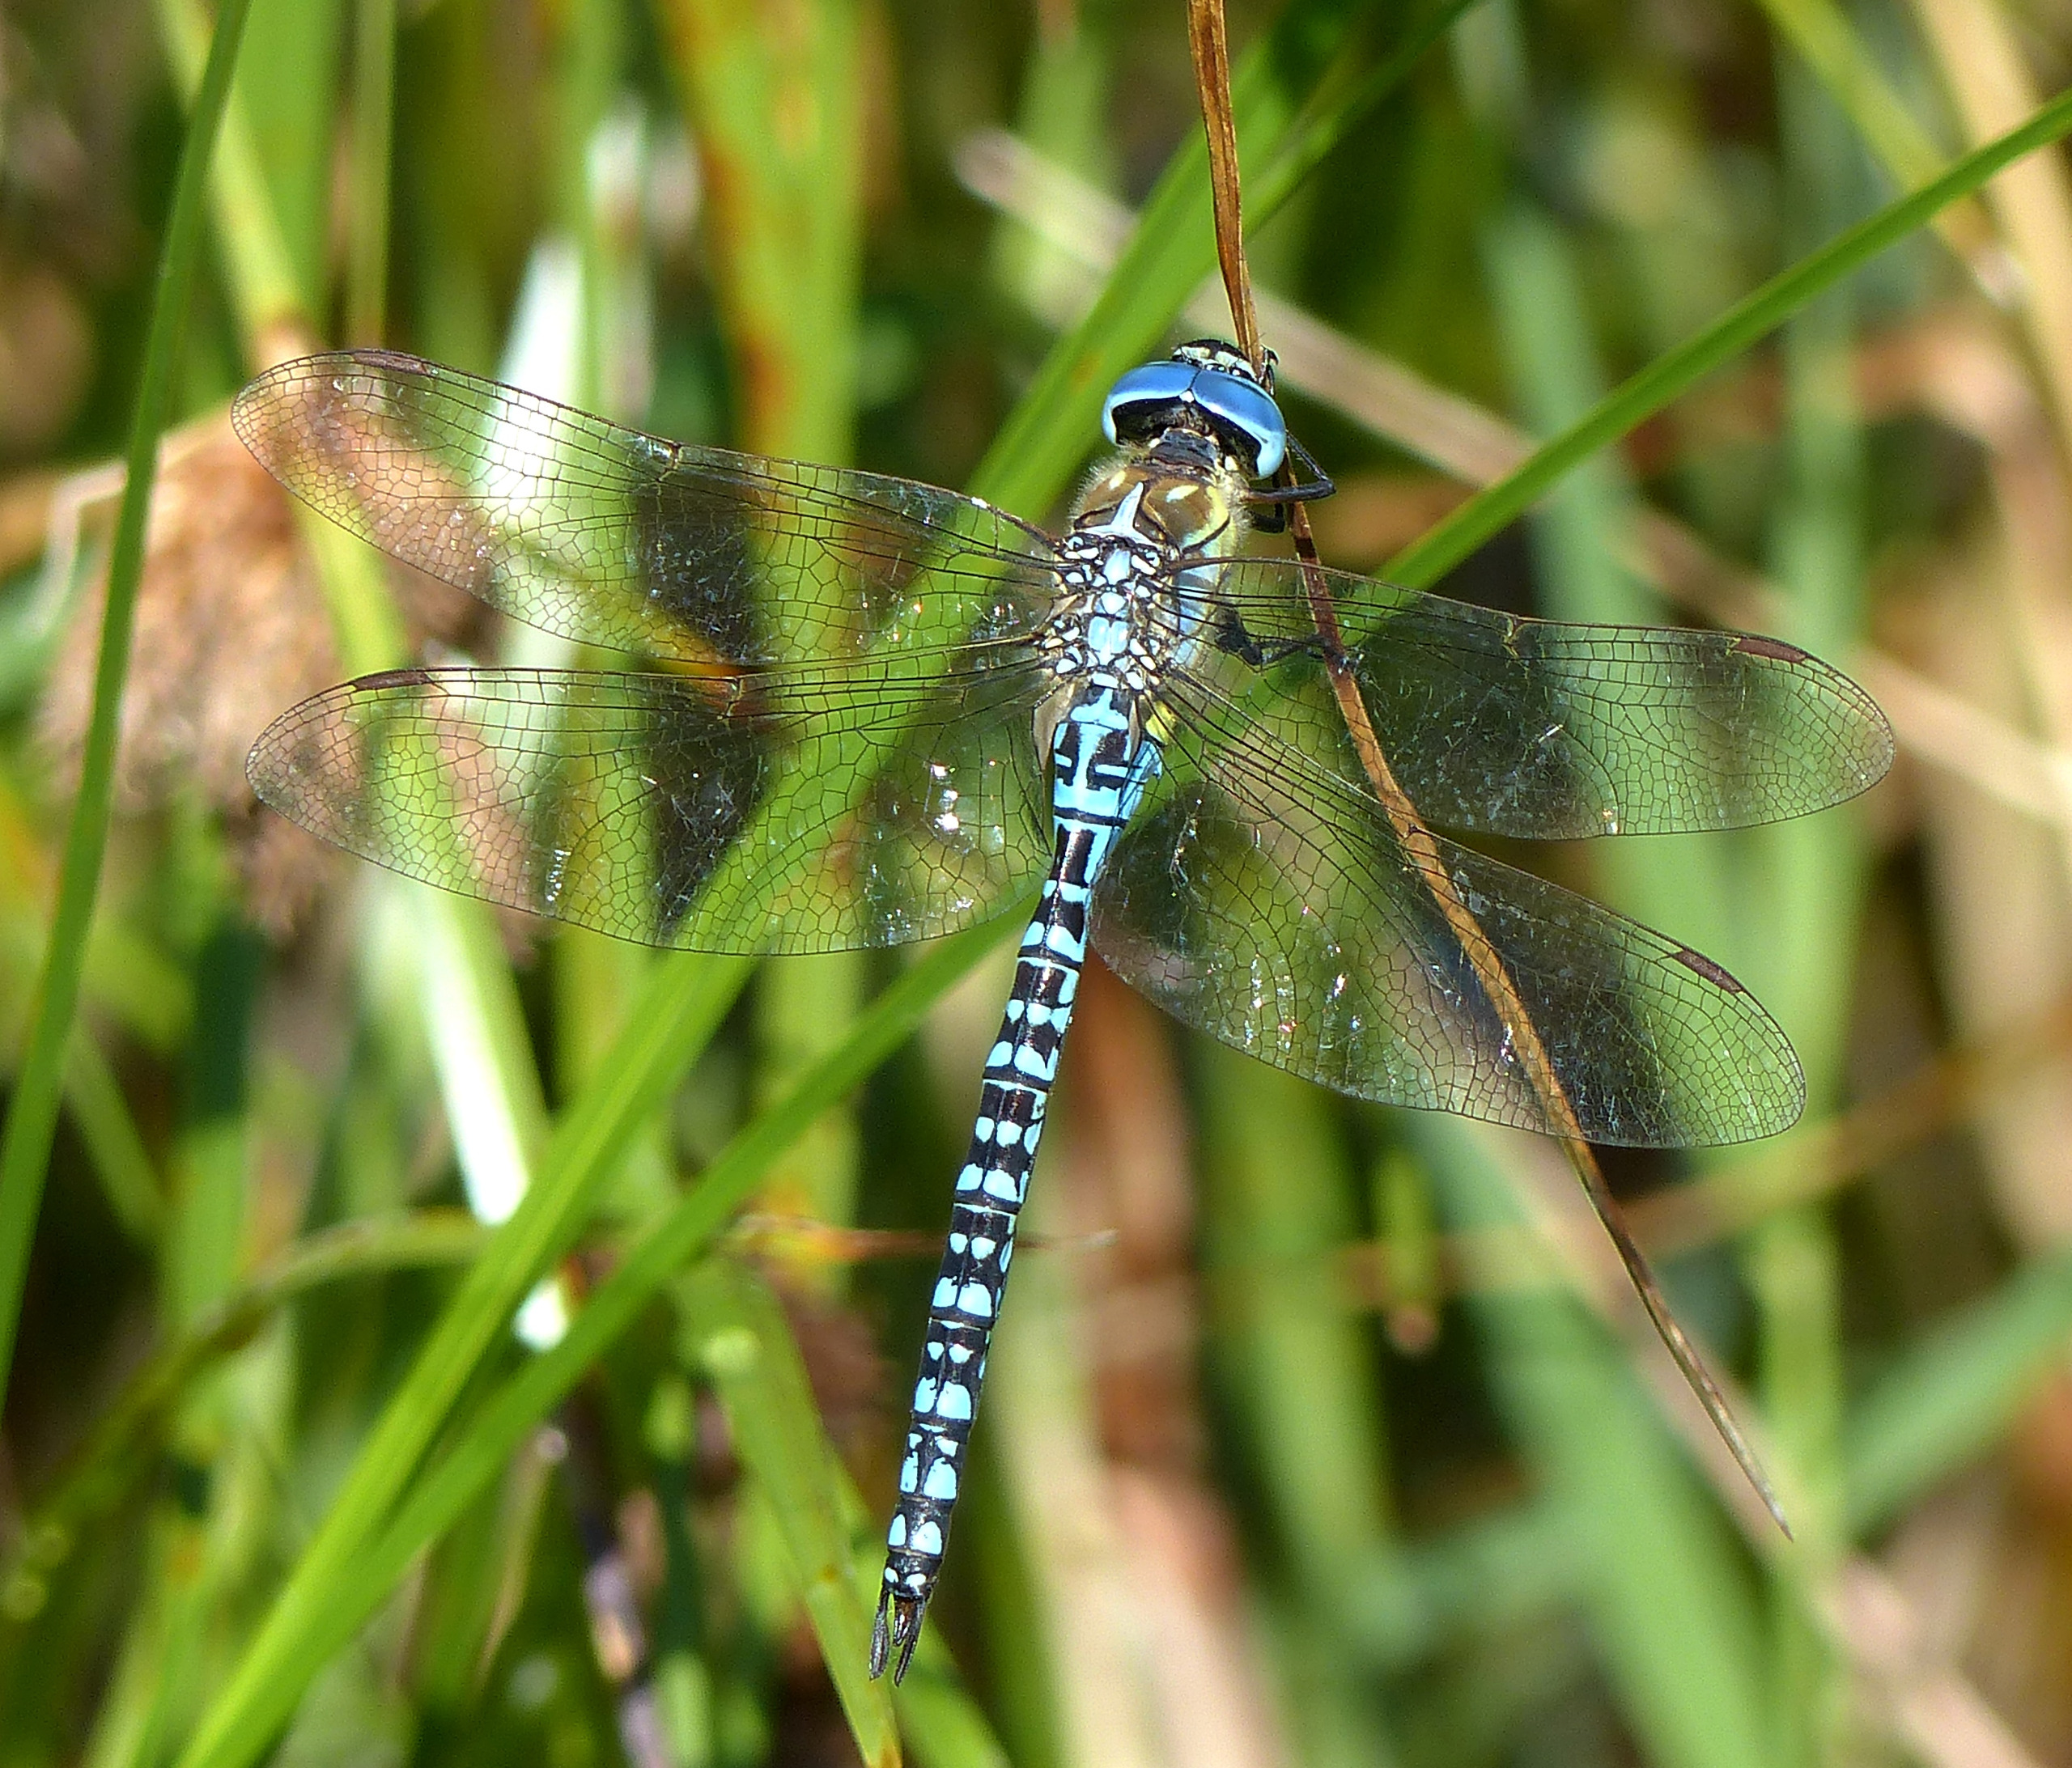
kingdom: Animalia
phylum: Arthropoda
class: Insecta
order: Odonata
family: Aeshnidae
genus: Aeshna
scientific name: Aeshna affinis
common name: Sydlig mosaikguldsmed
